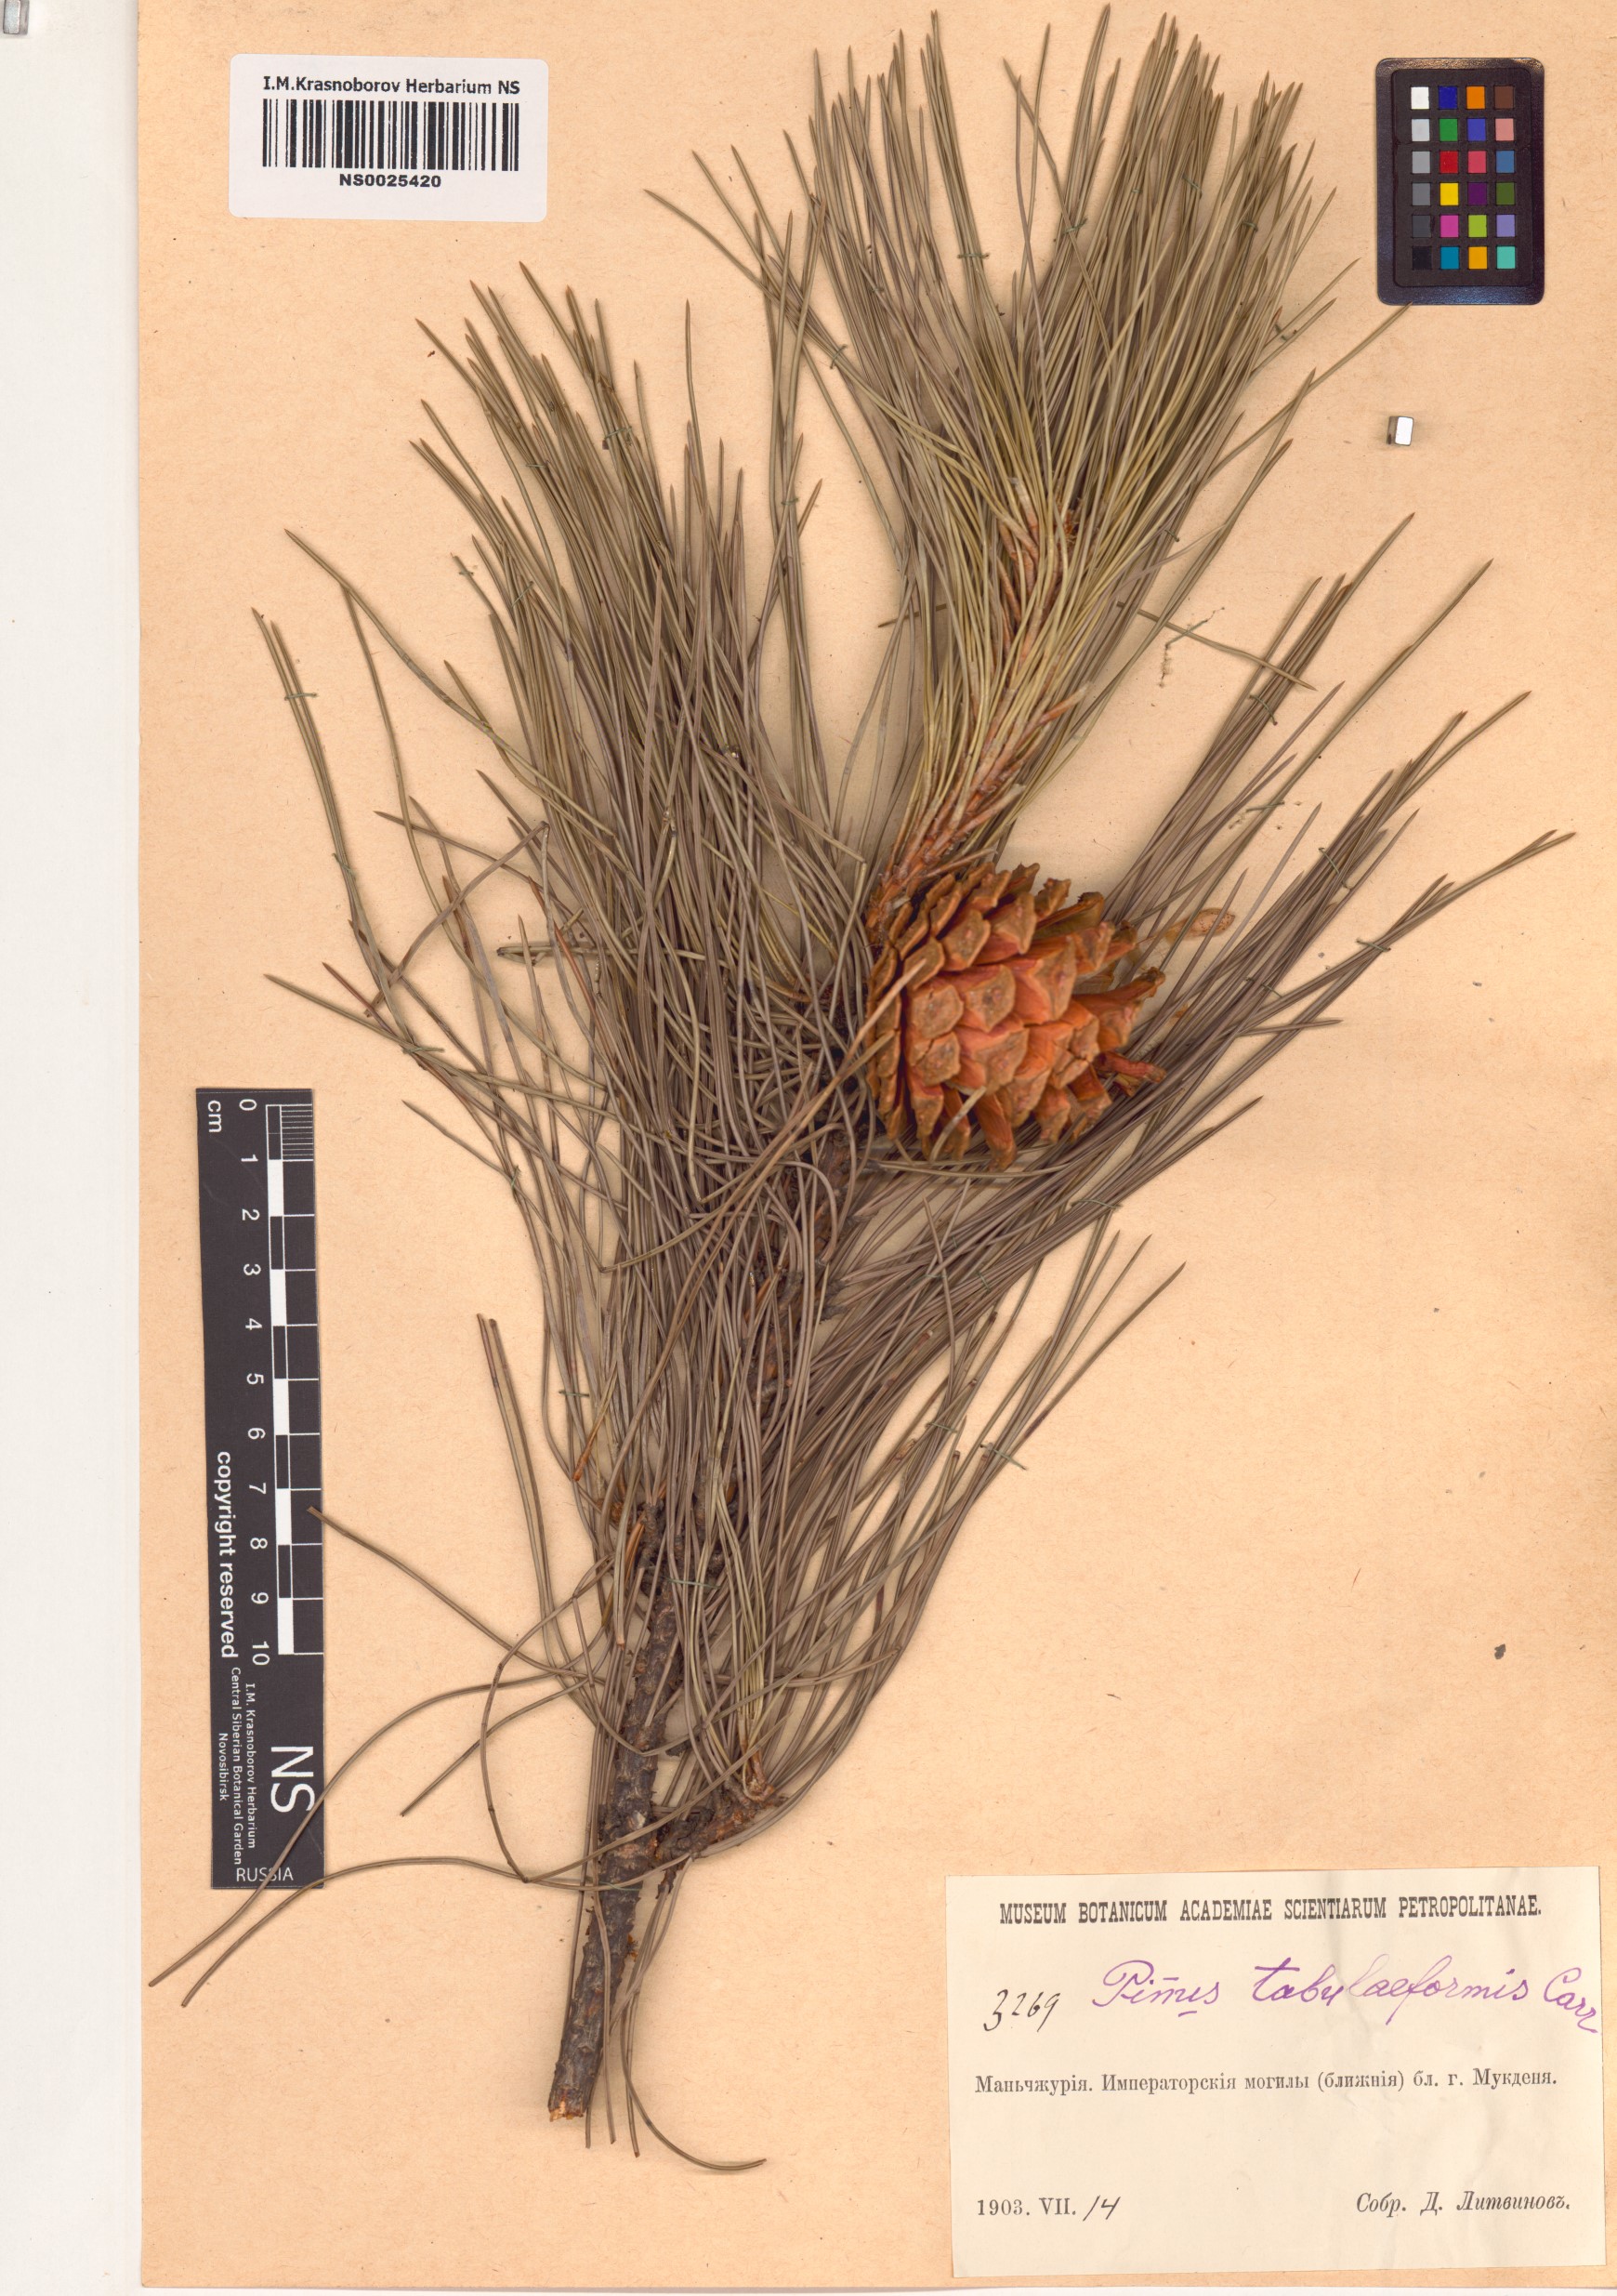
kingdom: Plantae
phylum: Tracheophyta
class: Pinopsida
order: Pinales
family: Pinaceae
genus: Pinus
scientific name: Pinus tabuliformis
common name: Chinese red pine
